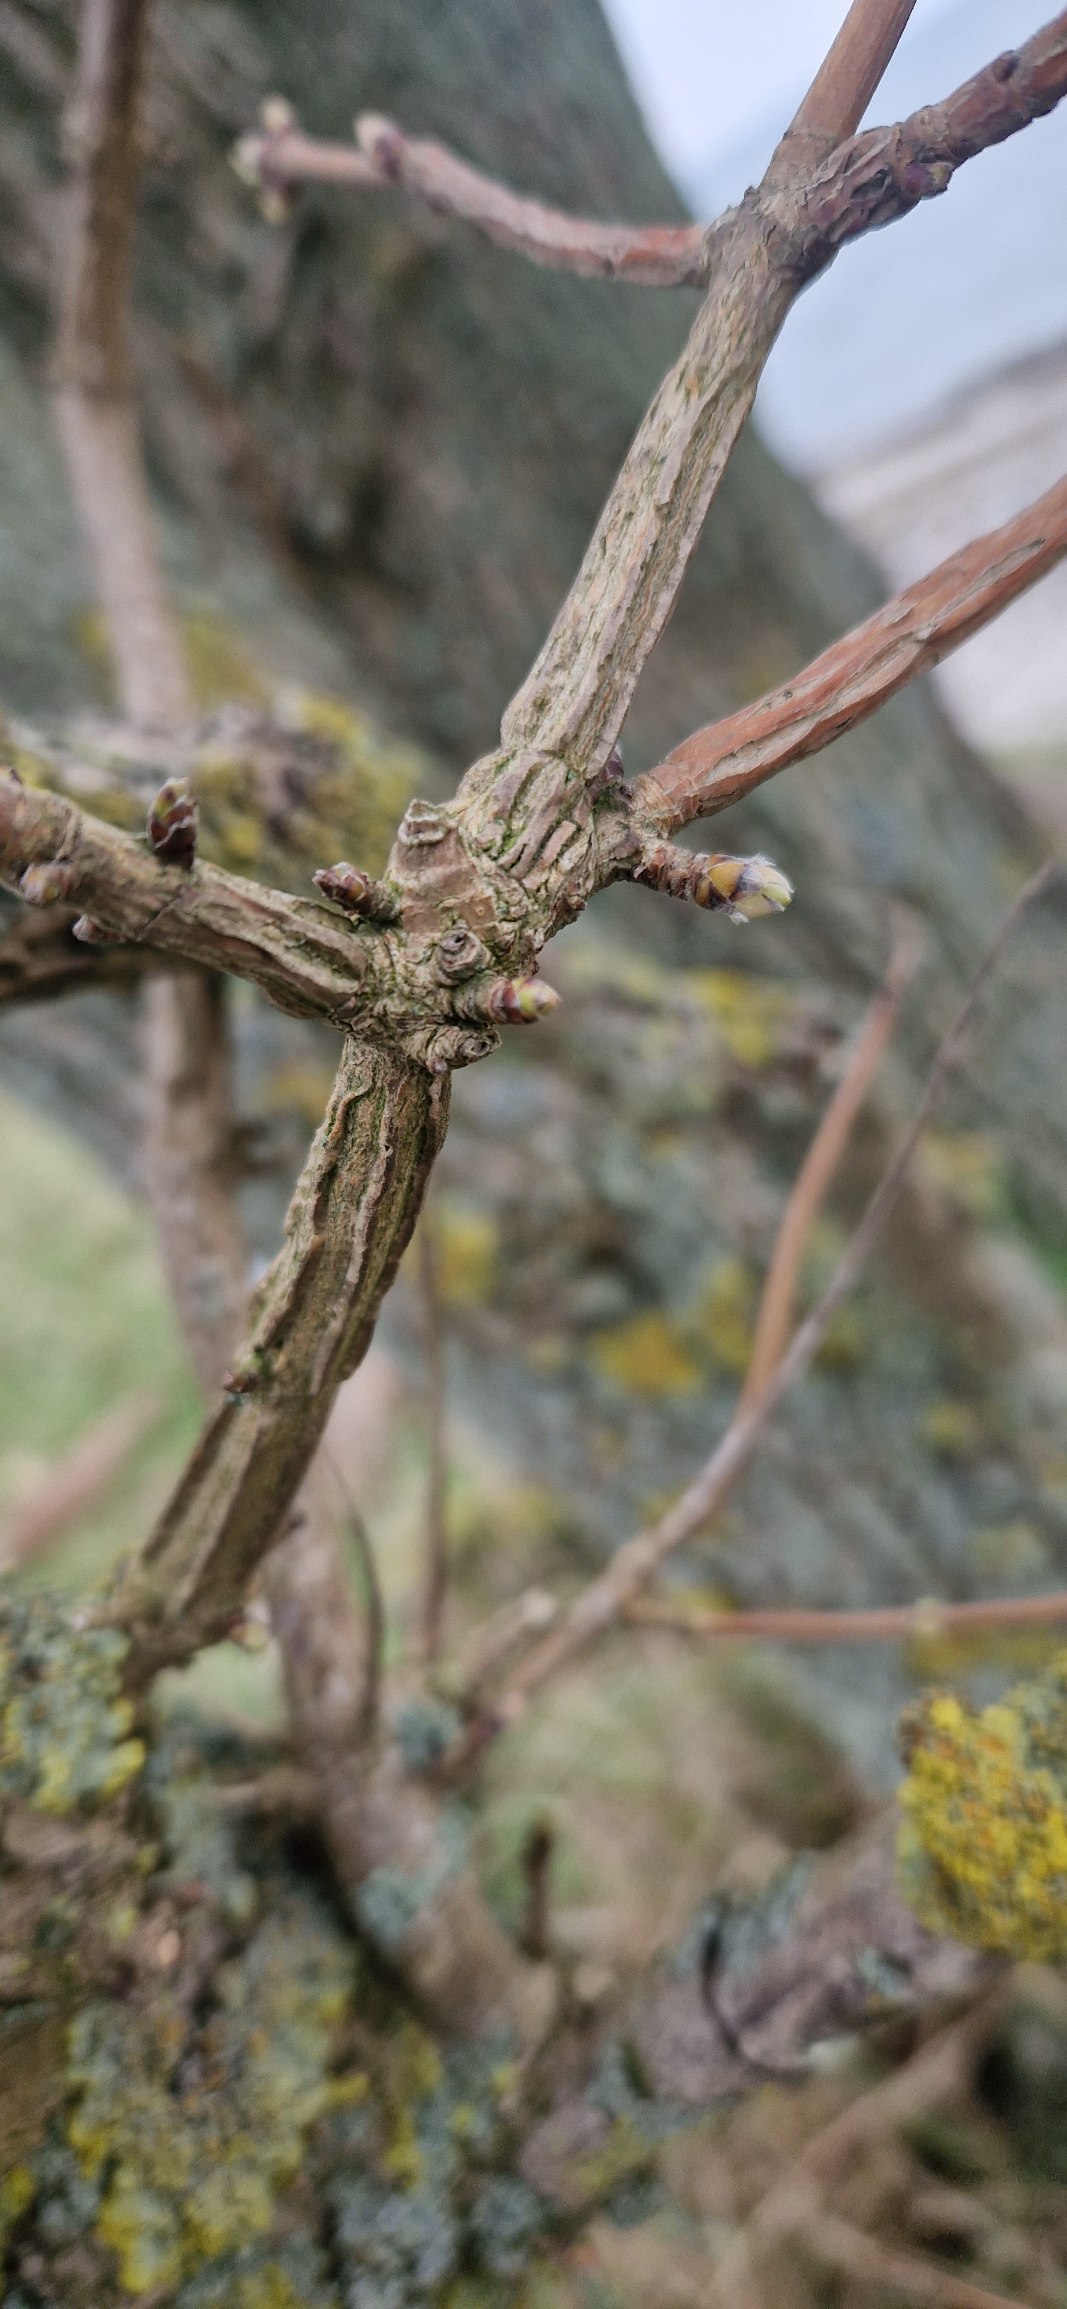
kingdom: Plantae
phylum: Tracheophyta
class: Magnoliopsida
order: Sapindales
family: Sapindaceae
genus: Acer
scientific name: Acer campestre
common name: Navr
